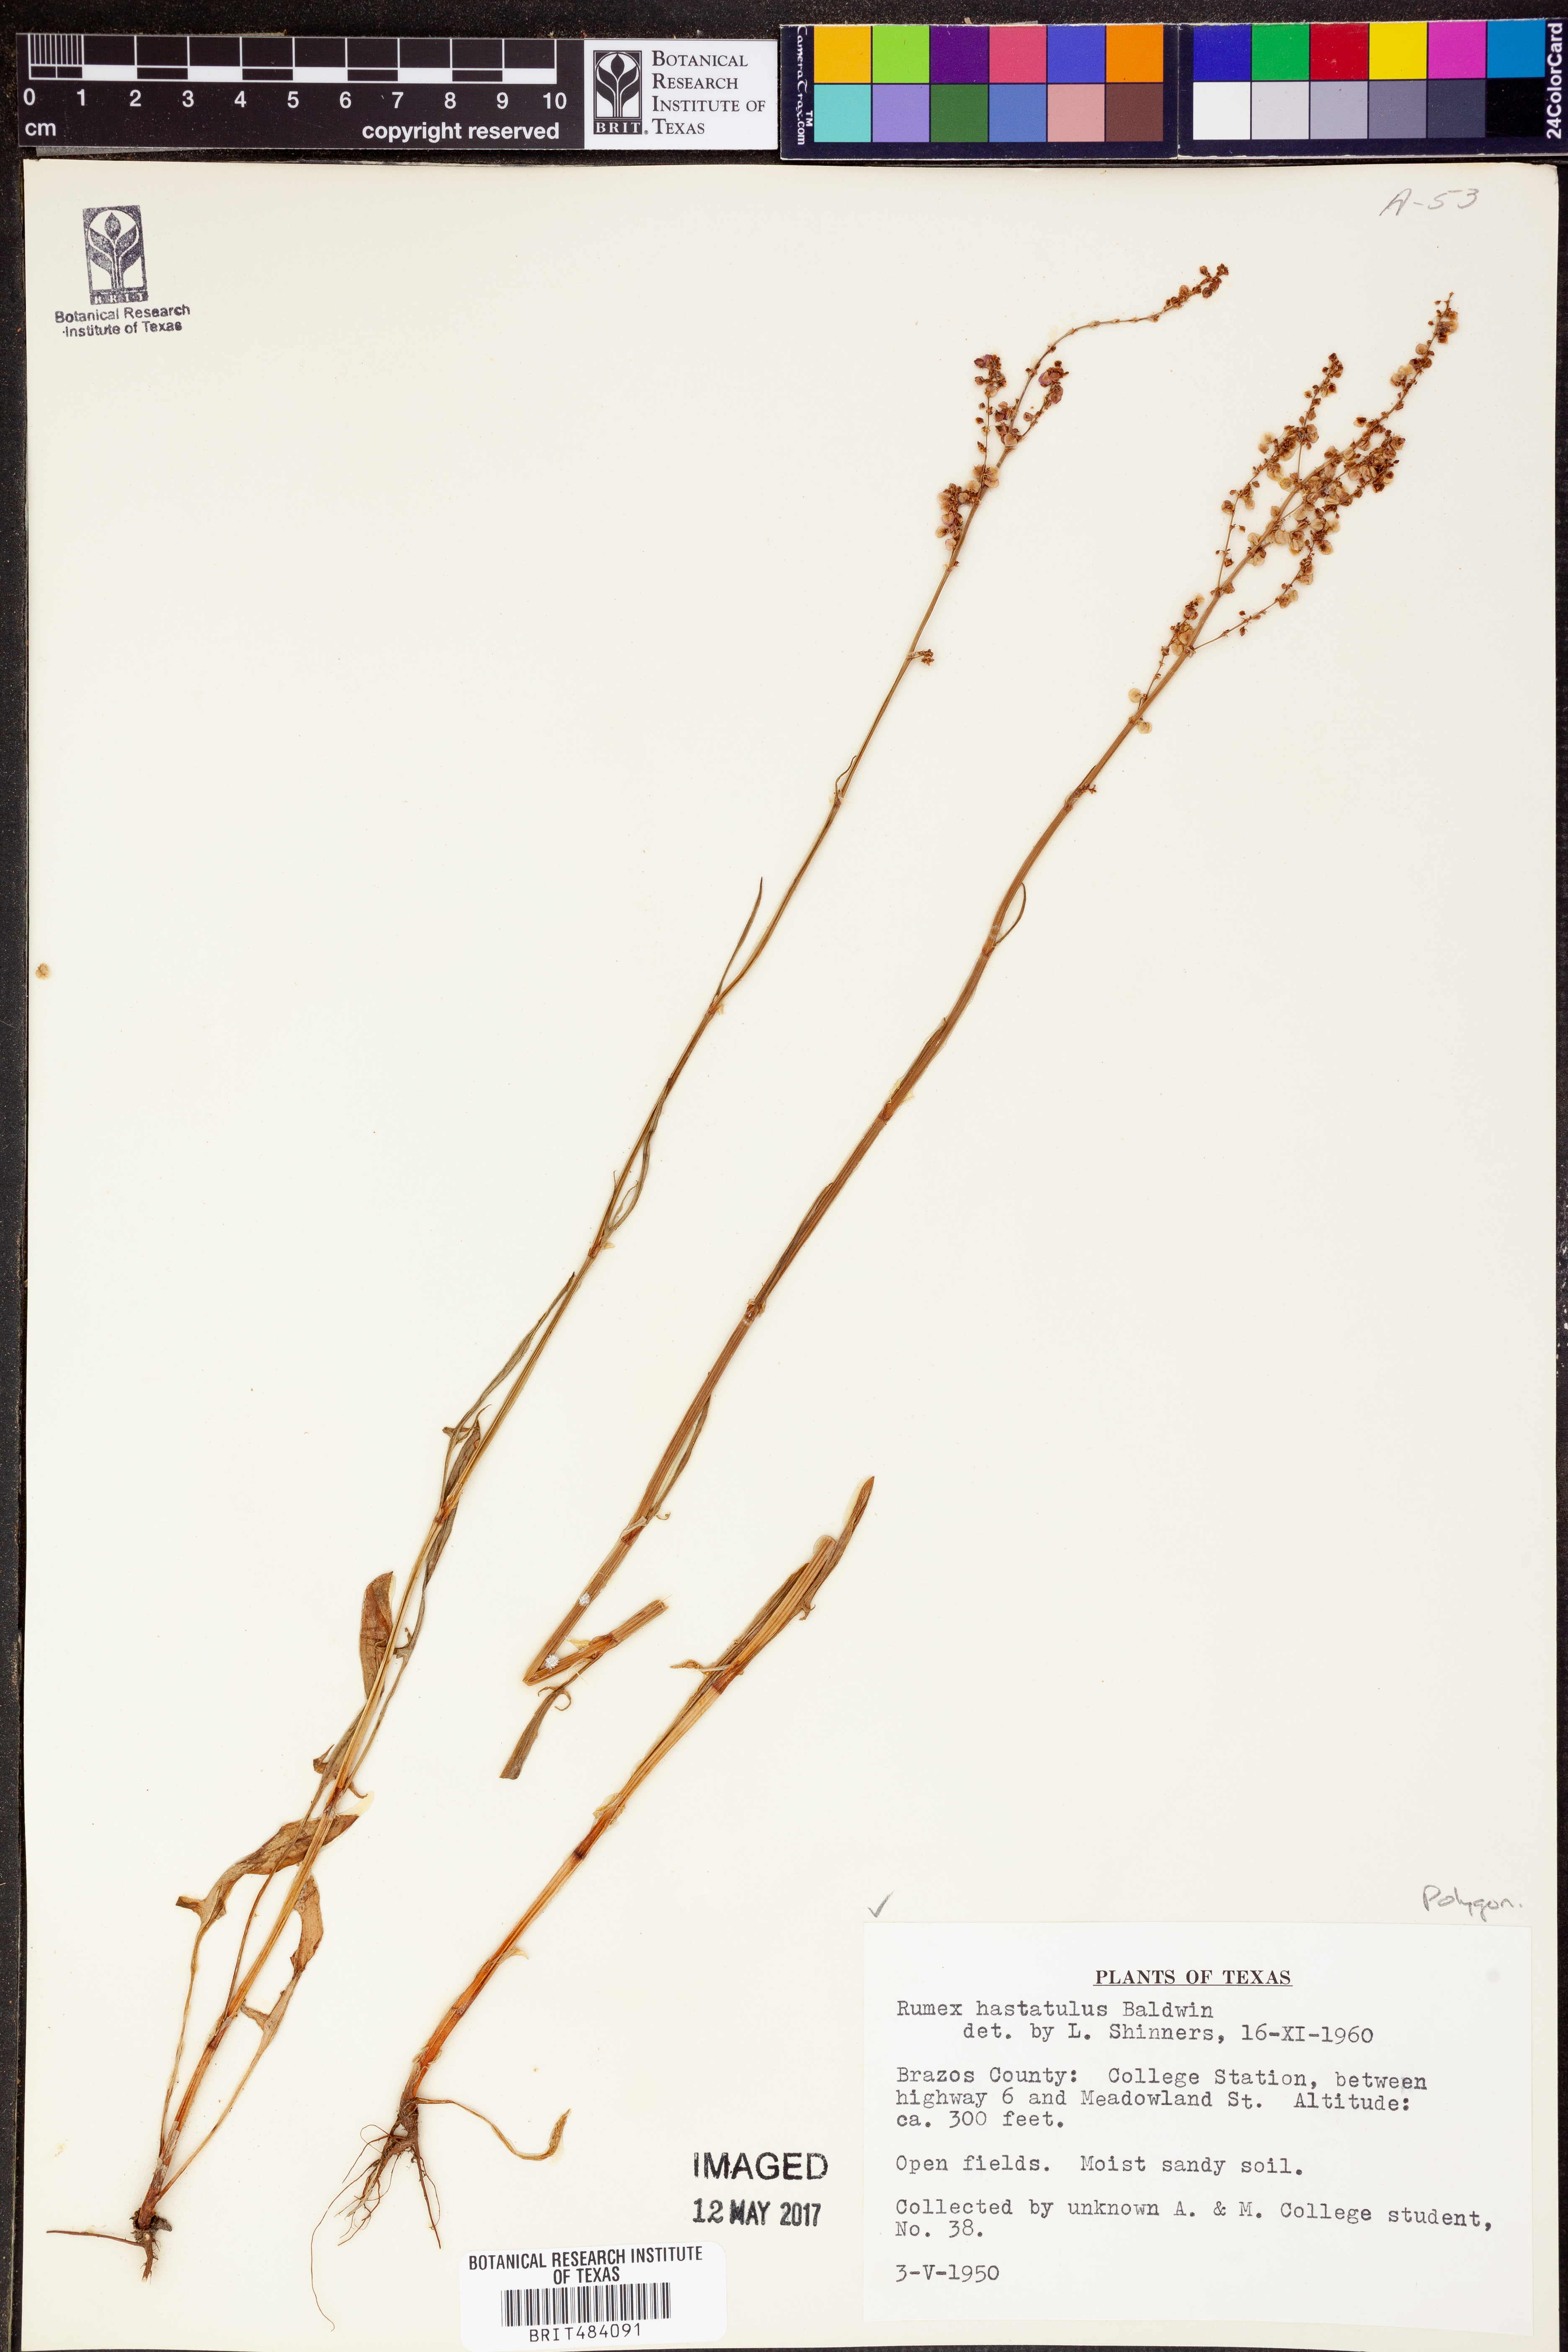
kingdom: Plantae
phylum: Tracheophyta
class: Magnoliopsida
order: Caryophyllales
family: Polygonaceae
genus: Rumex
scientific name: Rumex hastatulus
